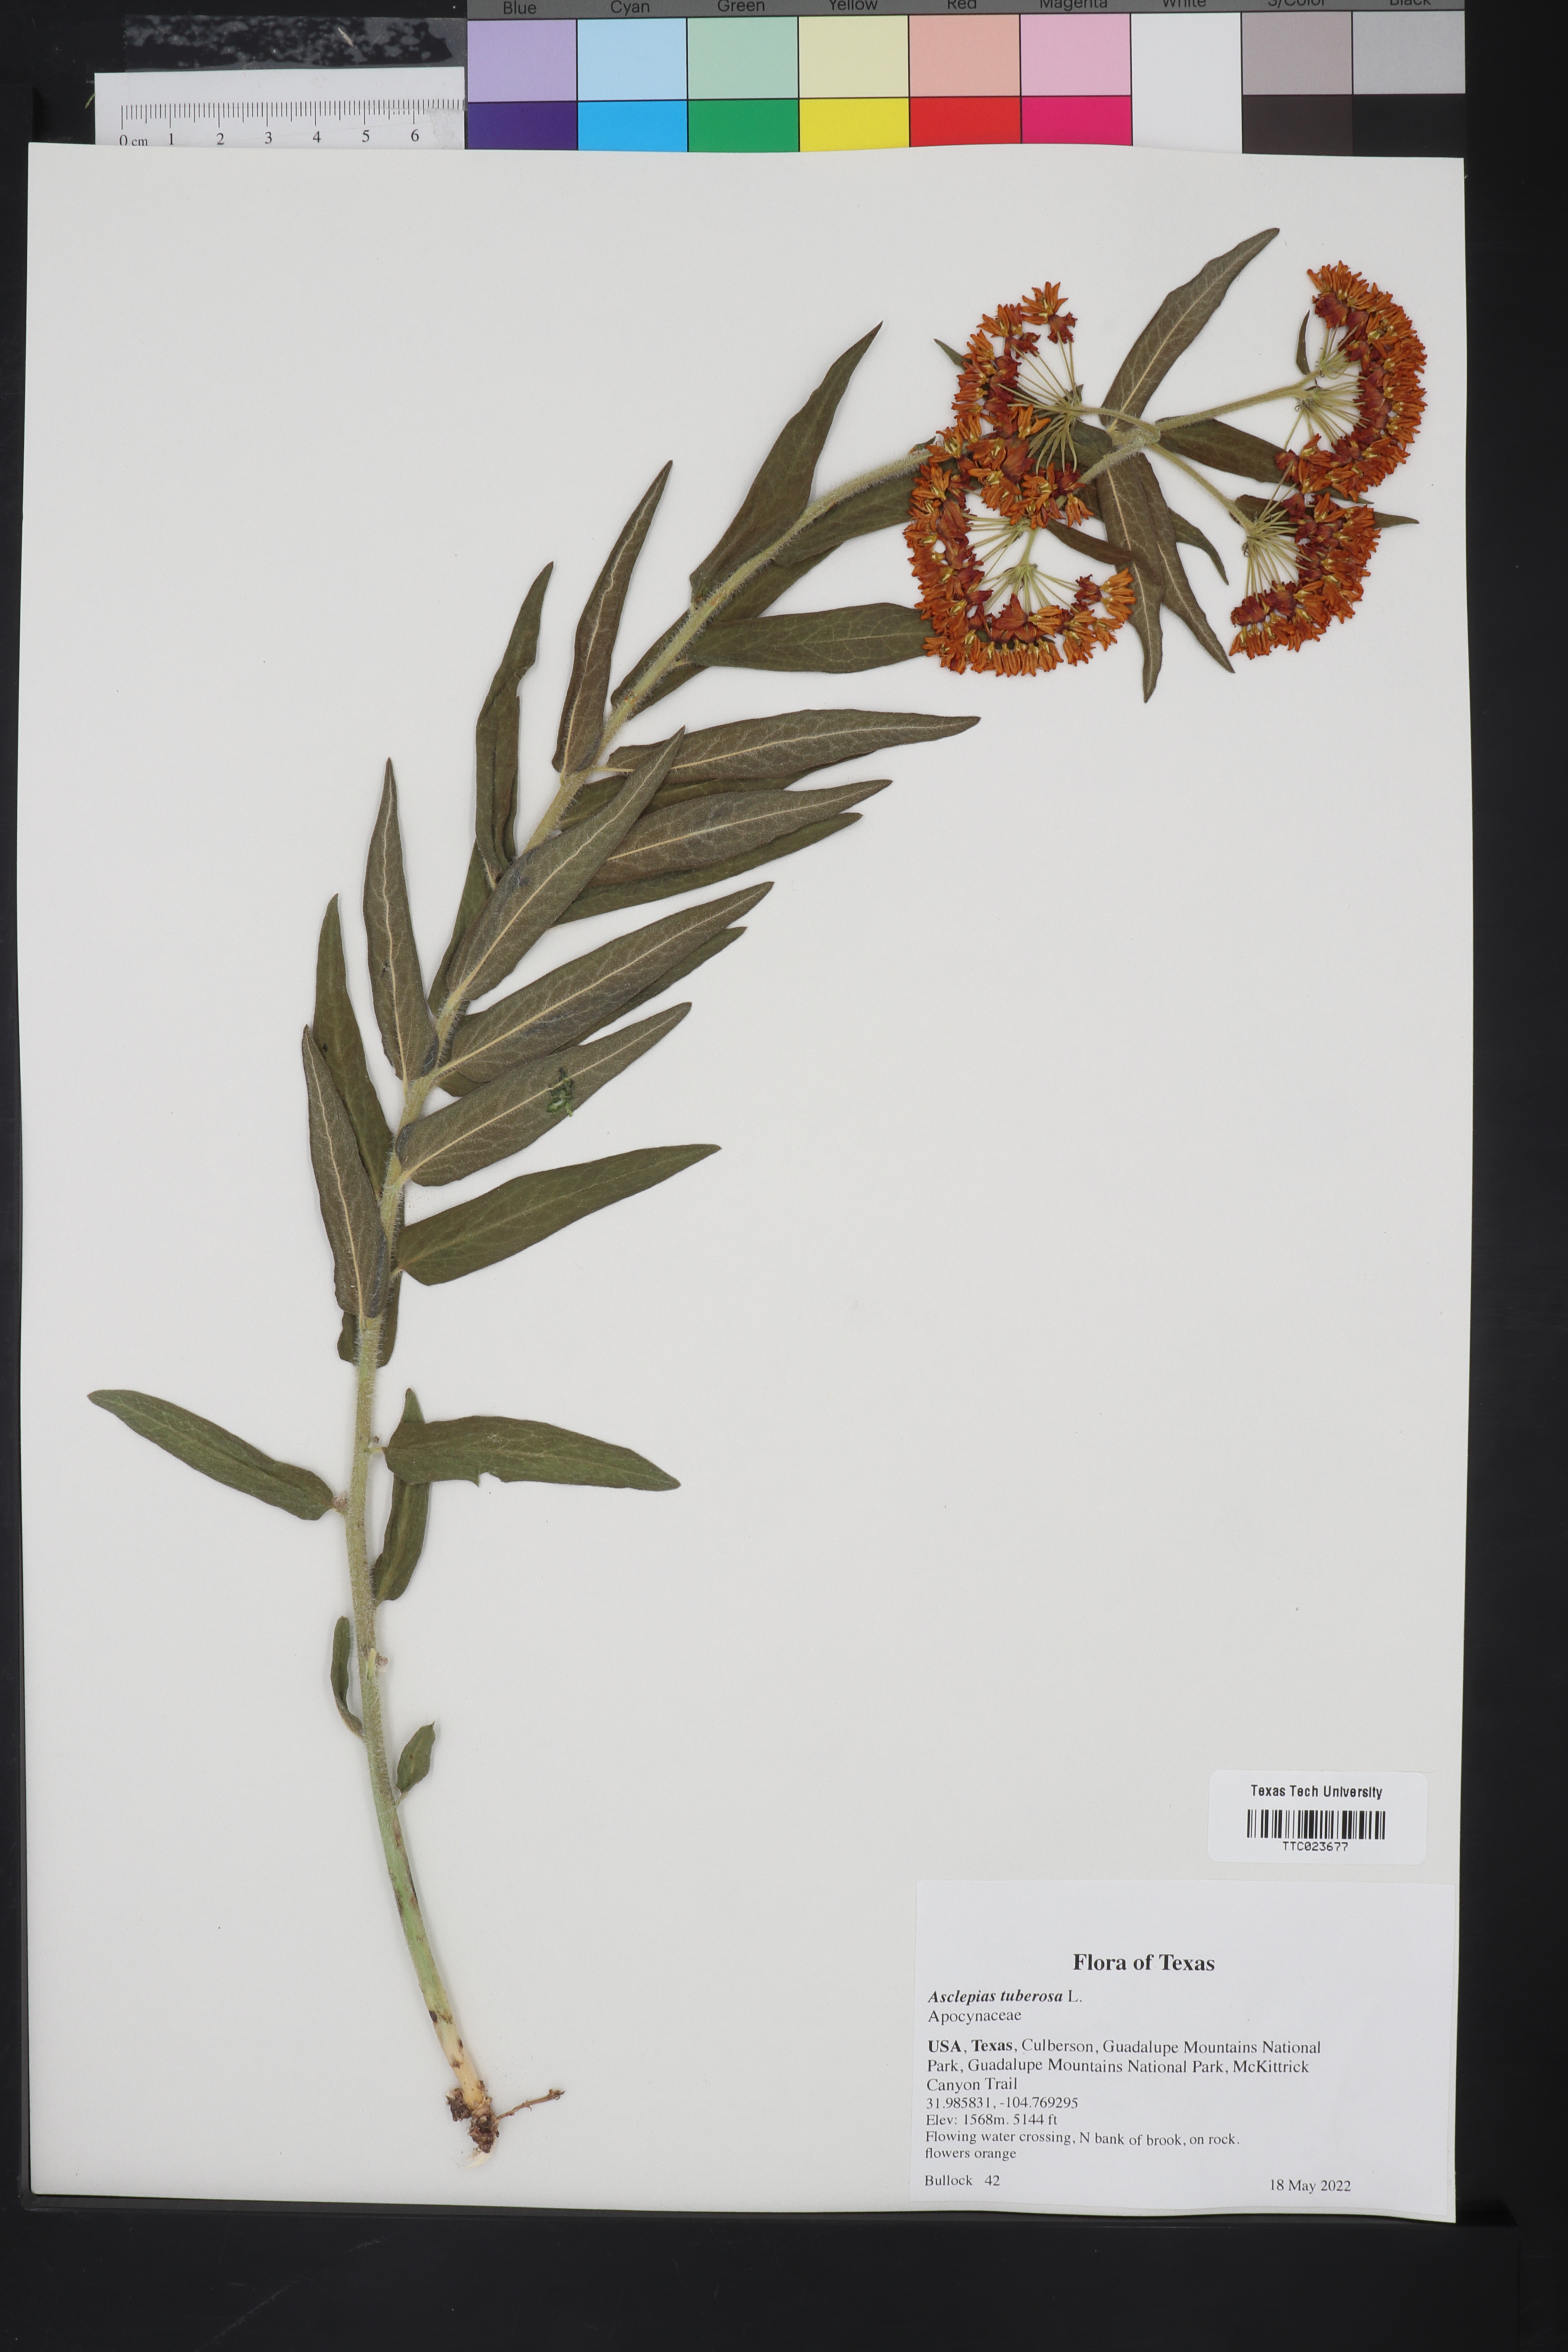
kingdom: Plantae
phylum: Tracheophyta
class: Magnoliopsida
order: Gentianales
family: Apocynaceae
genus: Asclepias
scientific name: Asclepias tuberosa
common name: Butterfly milkweed
